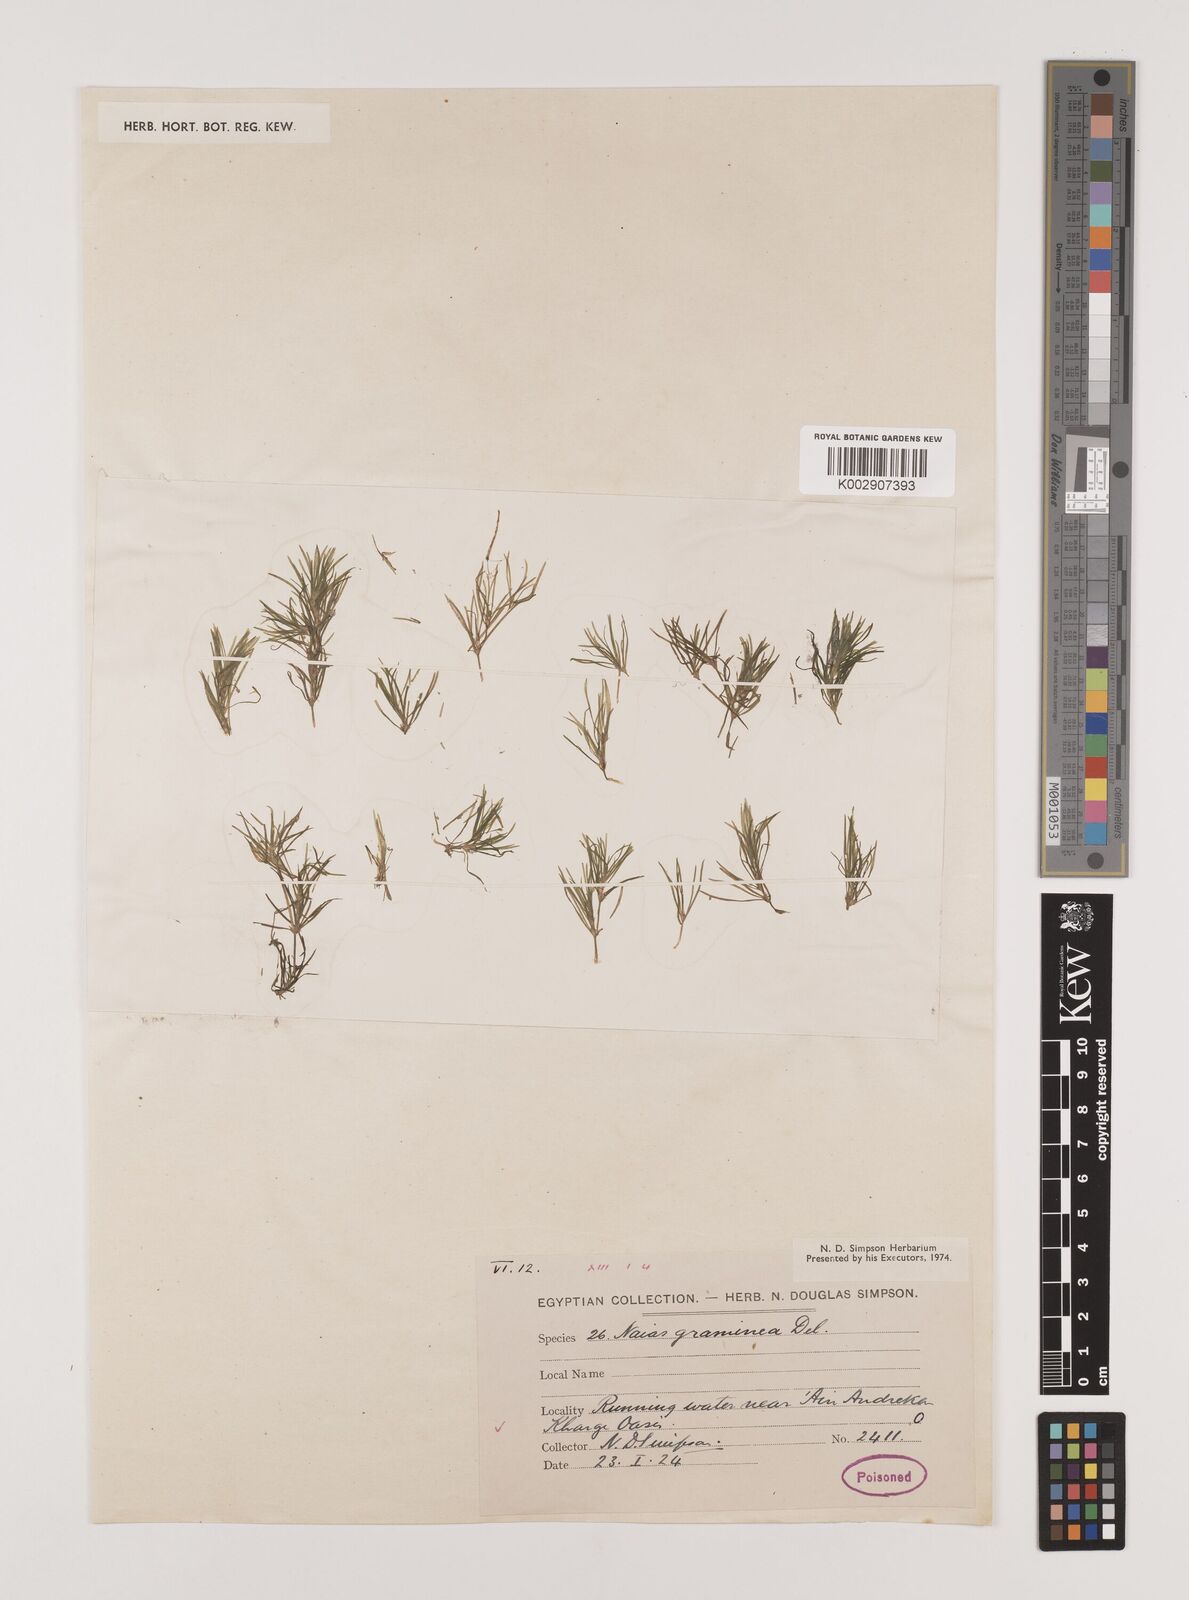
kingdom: Plantae
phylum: Tracheophyta
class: Liliopsida
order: Alismatales
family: Hydrocharitaceae
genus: Najas
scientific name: Najas graminea
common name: Ricefield waternymph
